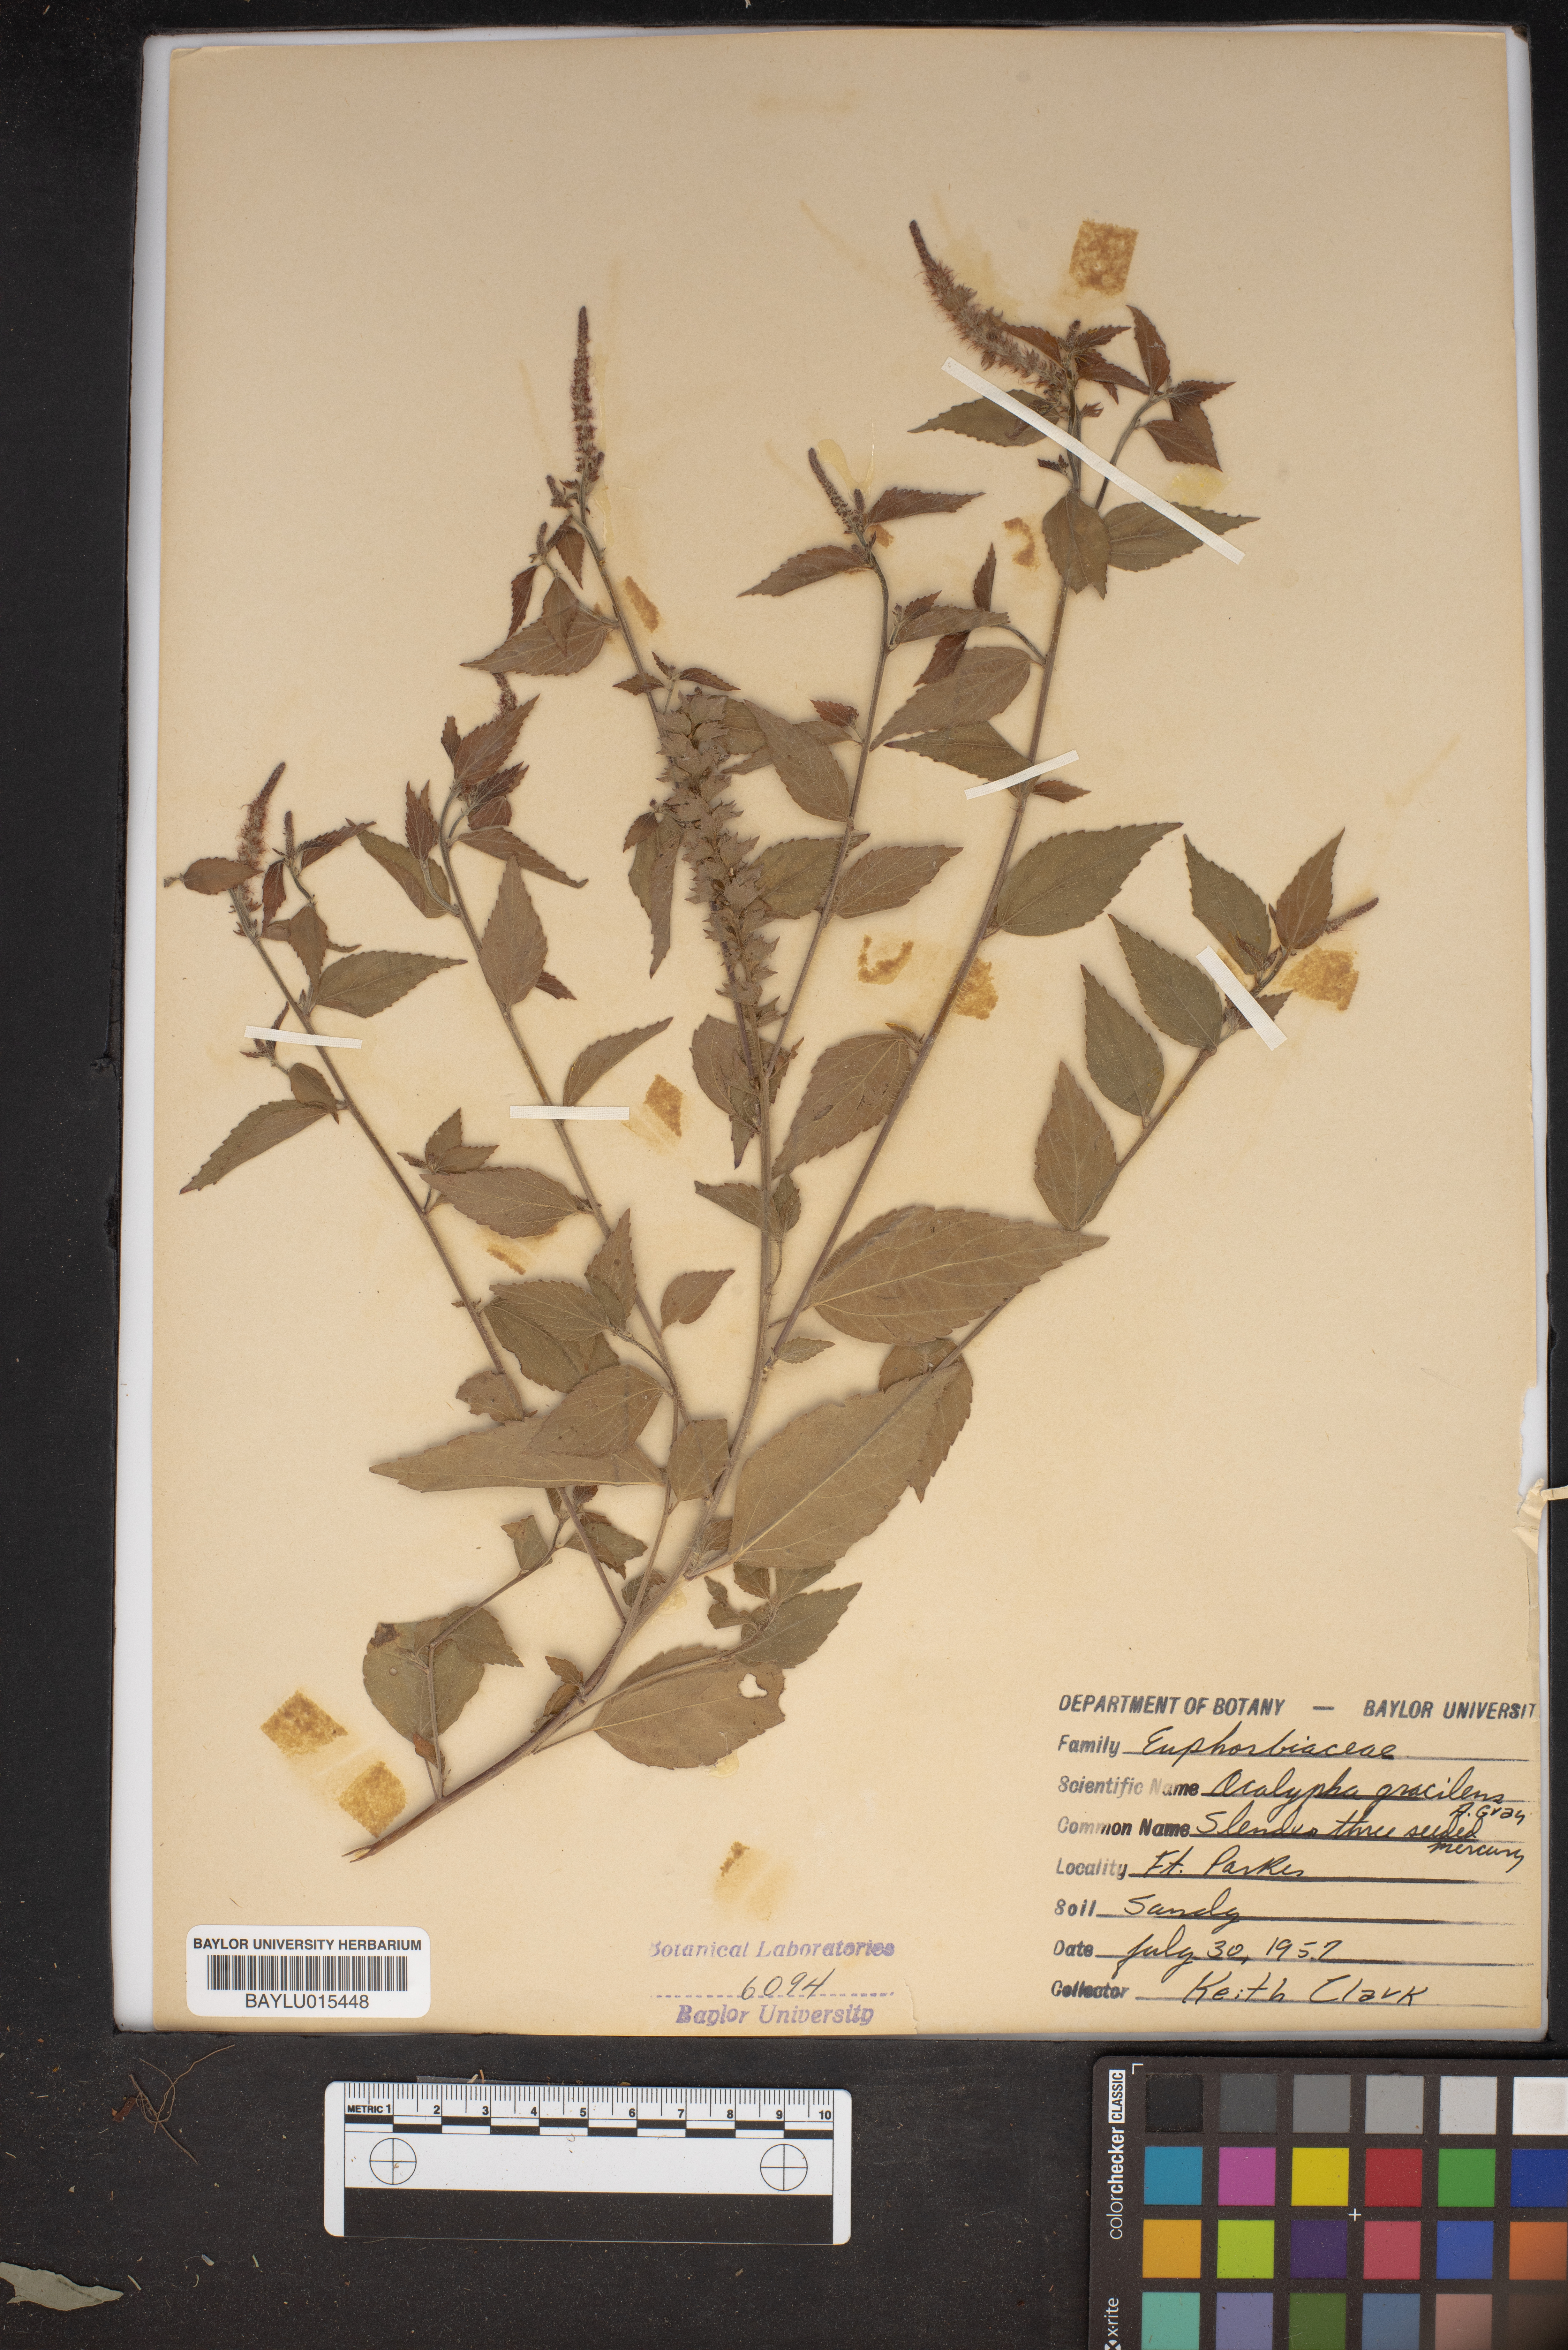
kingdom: Plantae
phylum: Tracheophyta
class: Magnoliopsida
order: Malpighiales
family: Euphorbiaceae
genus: Acalypha
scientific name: Acalypha gracilens
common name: Slender three-seeded mercury
